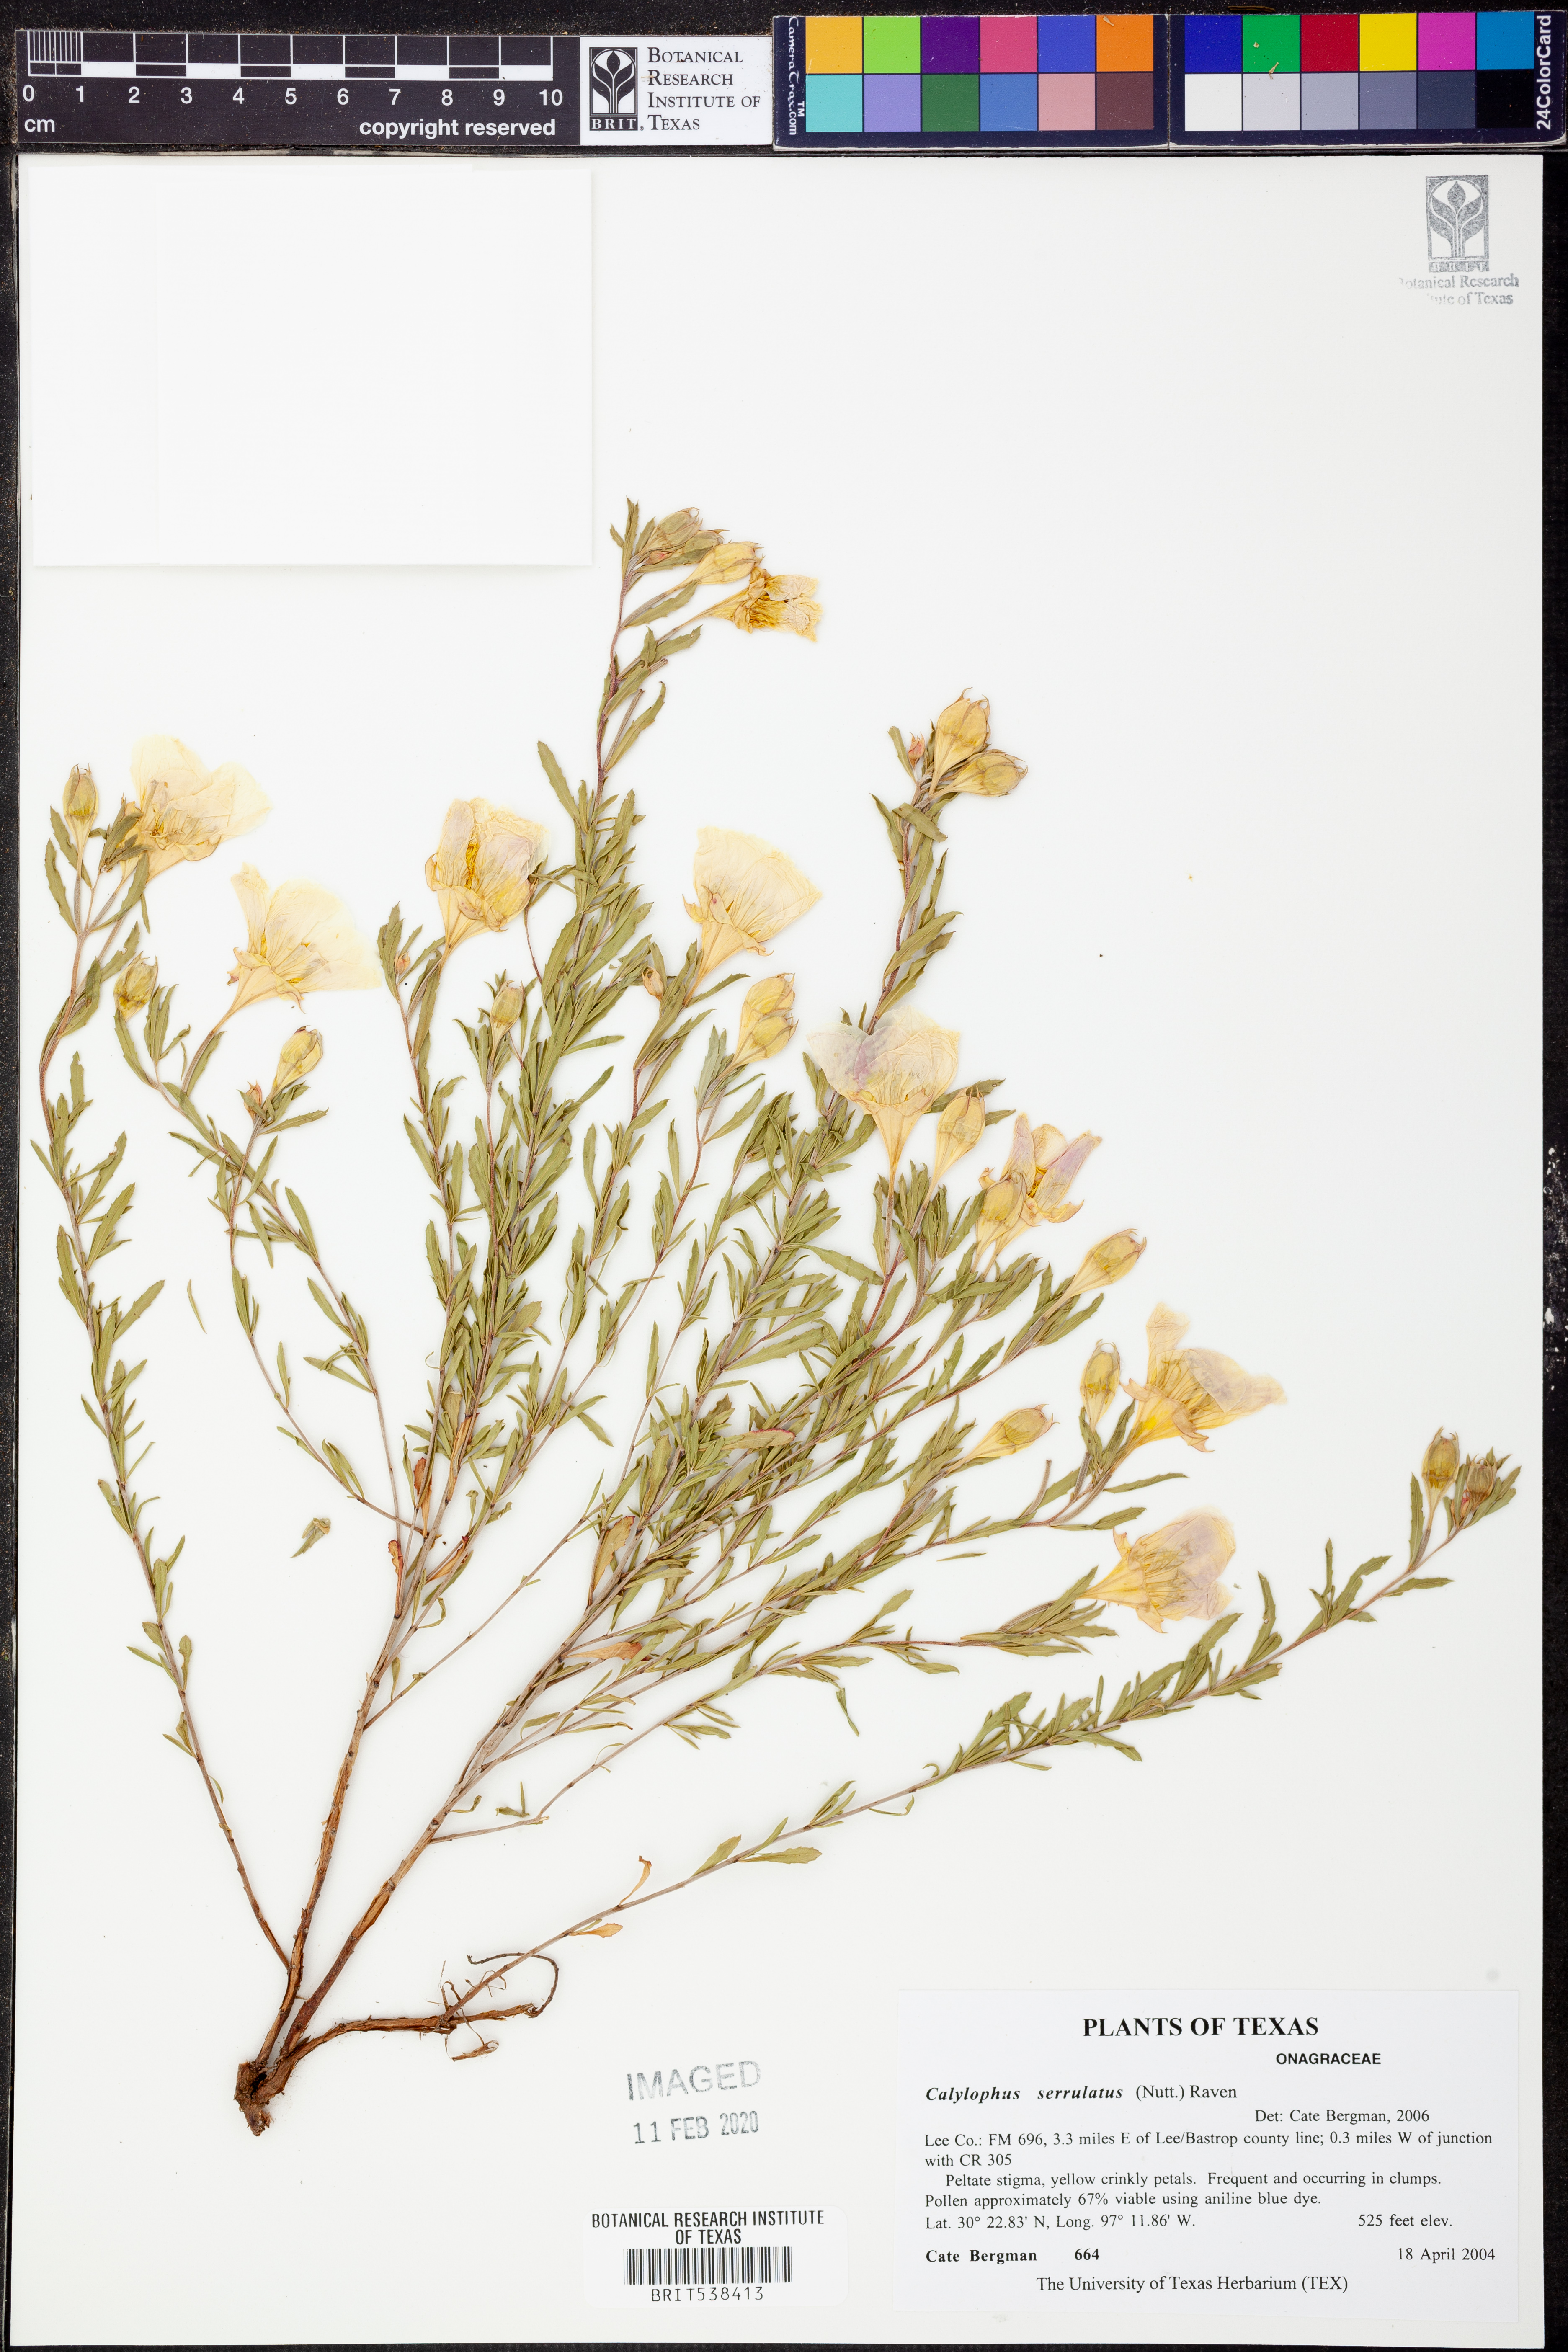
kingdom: Plantae
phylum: Tracheophyta
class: Magnoliopsida
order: Myrtales
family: Onagraceae
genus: Oenothera
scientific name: Oenothera serrulata
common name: Half-shrub calylophus
